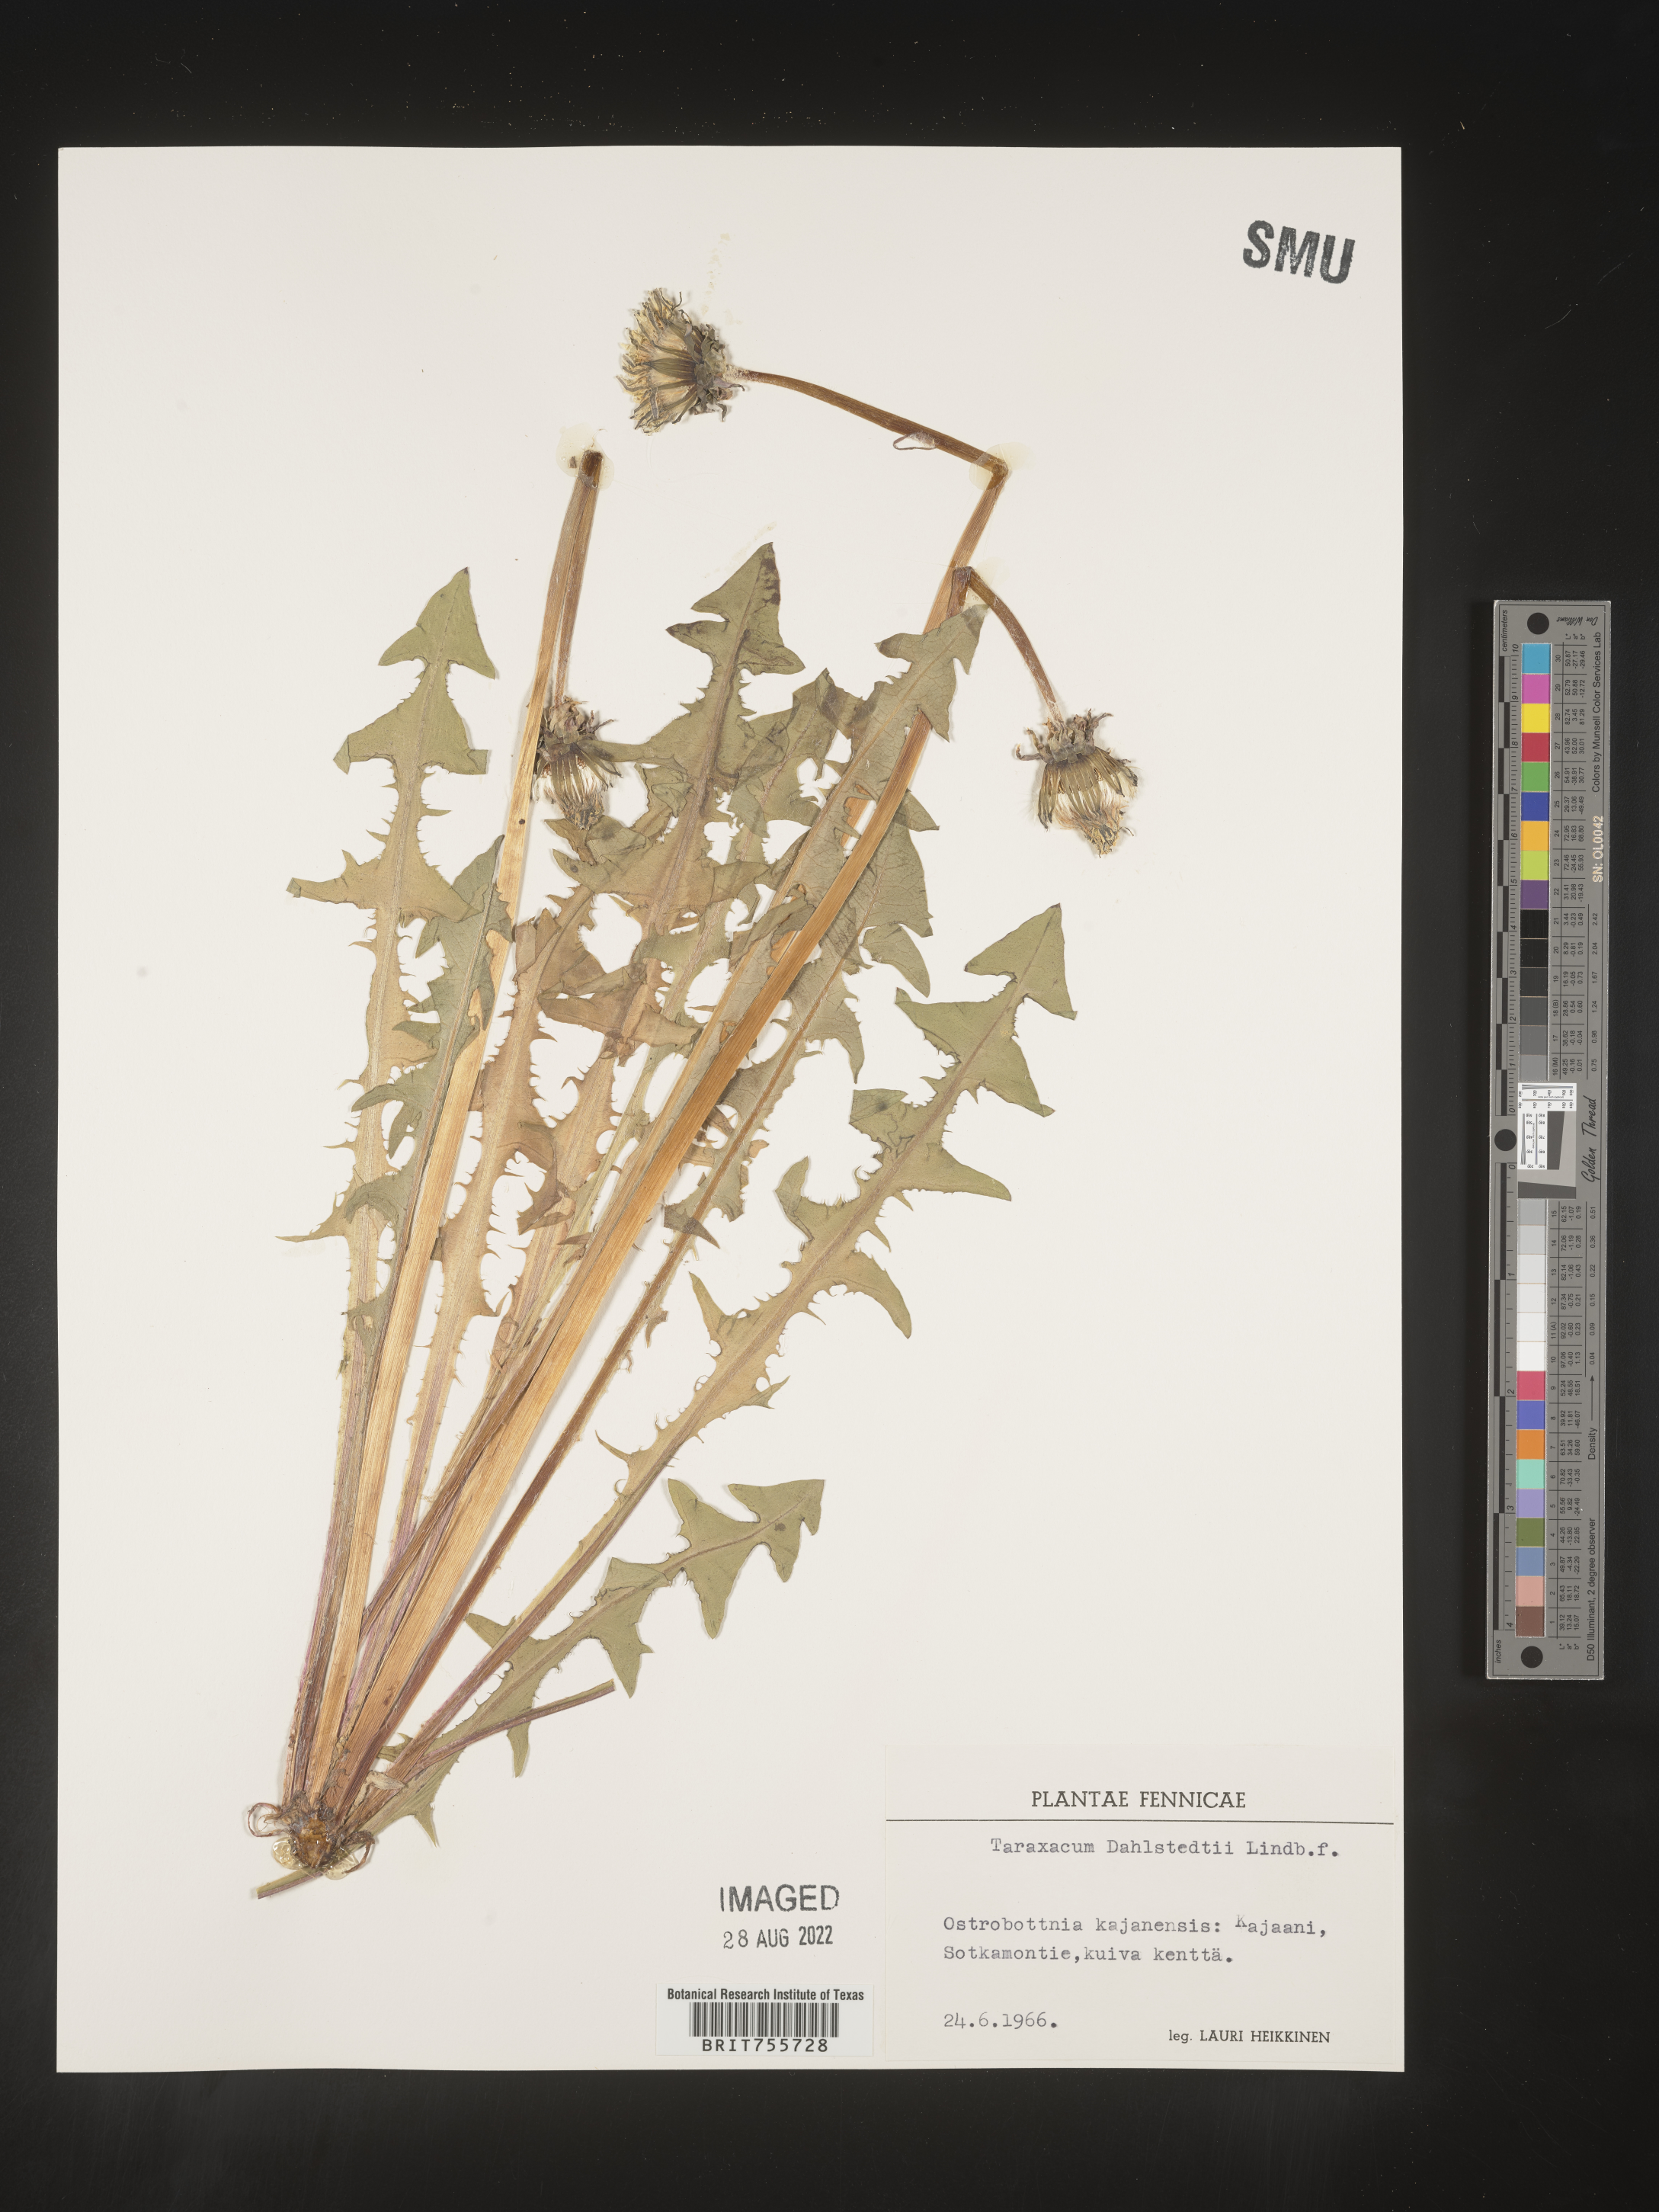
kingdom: Plantae
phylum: Tracheophyta
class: Magnoliopsida
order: Asterales
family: Asteraceae
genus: Taraxacum
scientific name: Taraxacum
